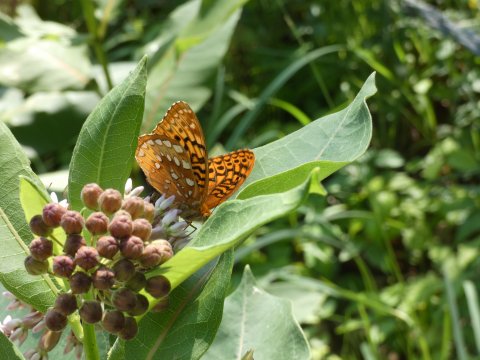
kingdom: Animalia
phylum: Arthropoda
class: Insecta
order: Lepidoptera
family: Nymphalidae
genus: Speyeria
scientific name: Speyeria cybele
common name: Great Spangled Fritillary
